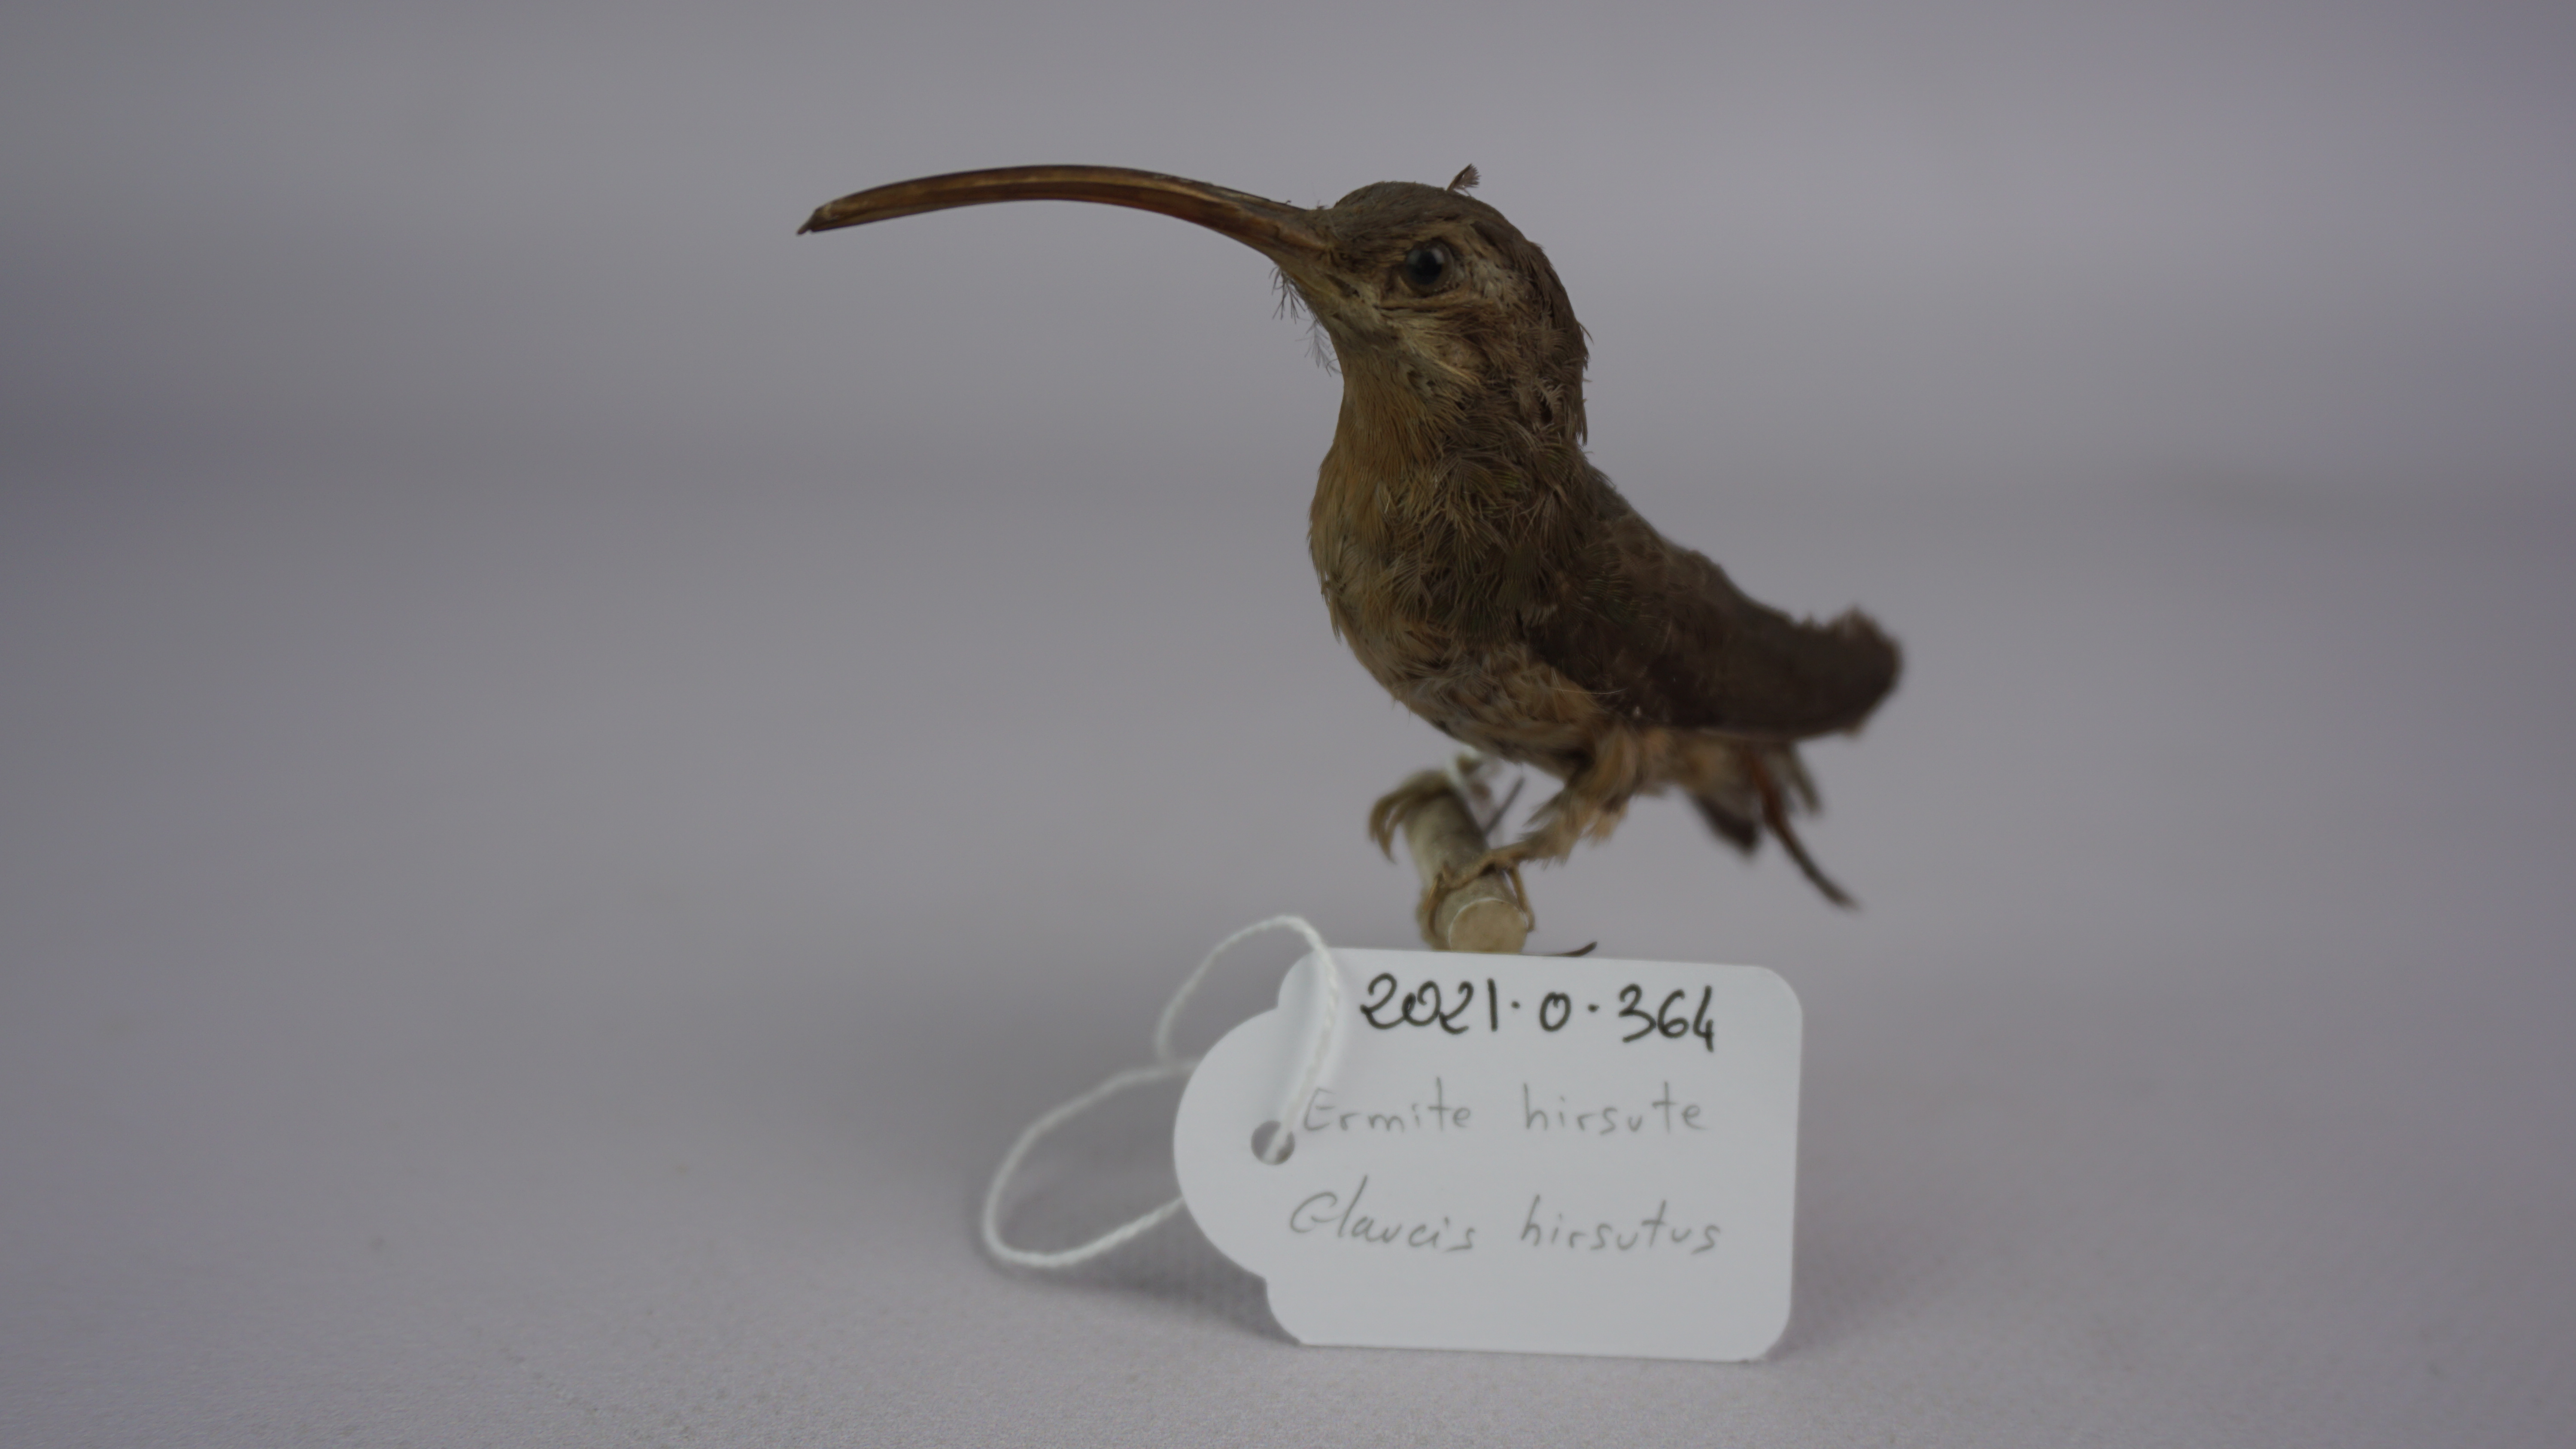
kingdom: Animalia
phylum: Chordata
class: Aves
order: Apodiformes
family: Trochilidae
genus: Glaucis
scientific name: Glaucis hirsutus
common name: Rufous-breasted hermit
